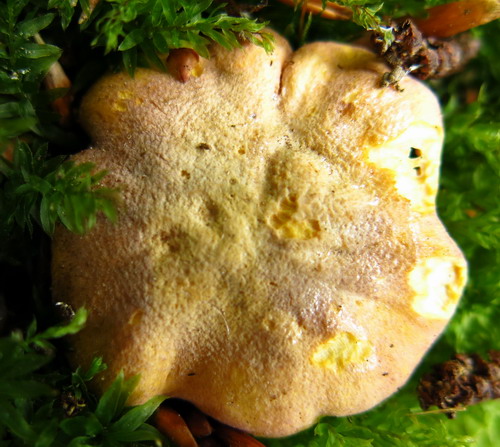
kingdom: Fungi
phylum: Basidiomycota
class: Agaricomycetes
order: Cantharellales
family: Hydnaceae
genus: Cantharellus
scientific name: Cantharellus amethysteus
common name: ametyst-kantarel
